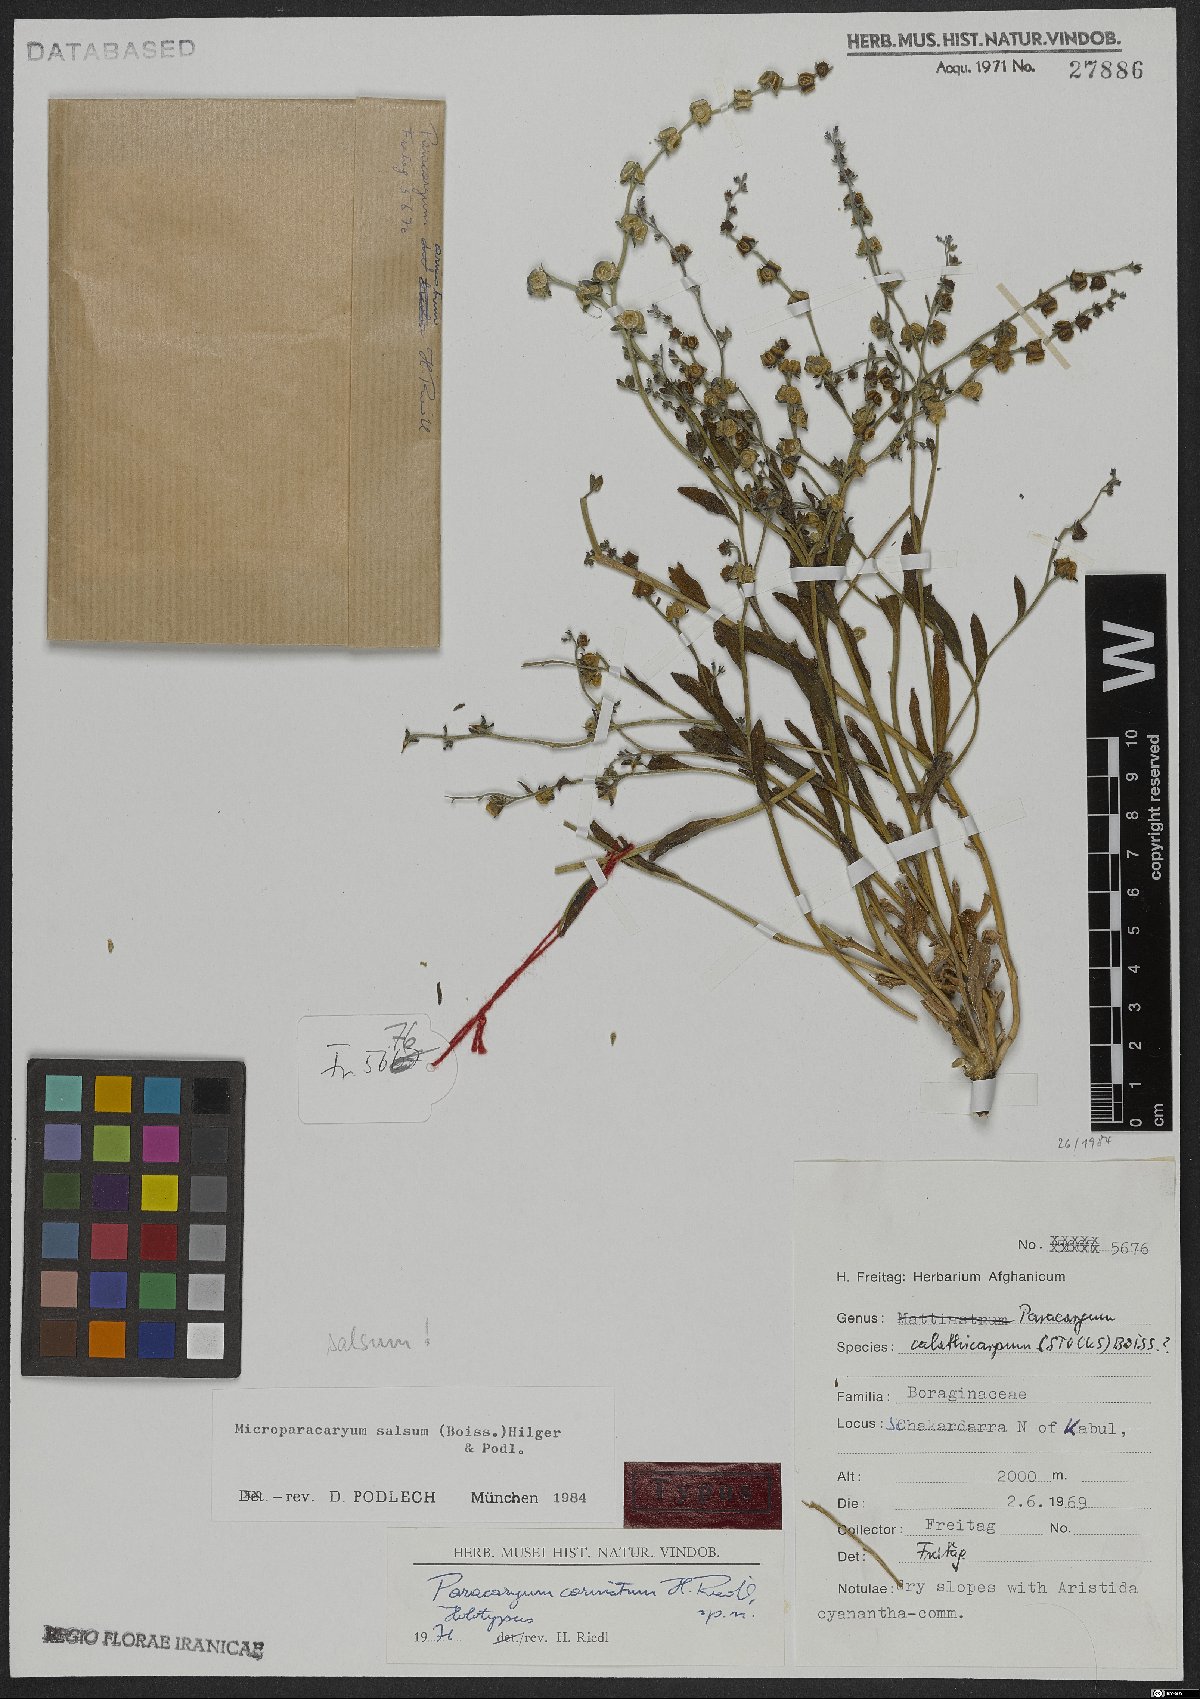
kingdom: Plantae
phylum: Tracheophyta
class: Magnoliopsida
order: Boraginales
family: Boraginaceae
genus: Microparacaryum
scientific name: Microparacaryum salsum
